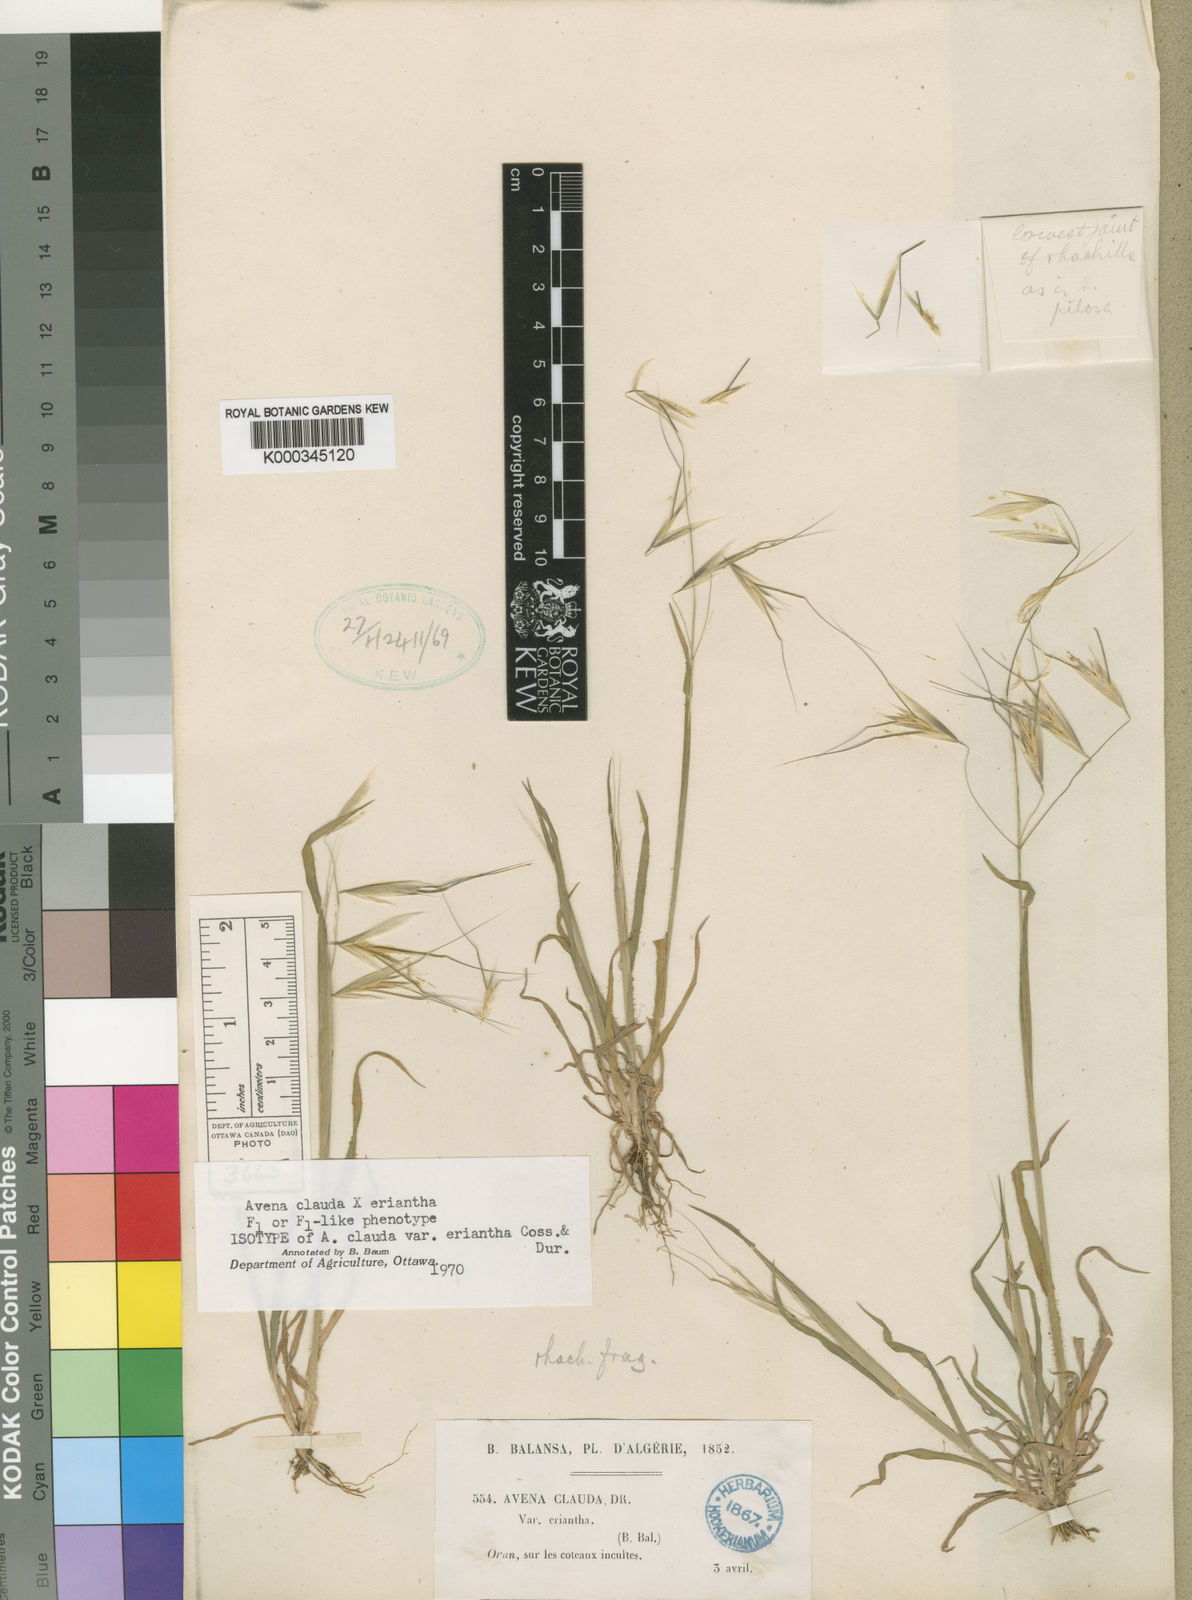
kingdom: Plantae
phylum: Tracheophyta
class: Liliopsida
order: Poales
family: Poaceae
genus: Avena
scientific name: Avena clauda
